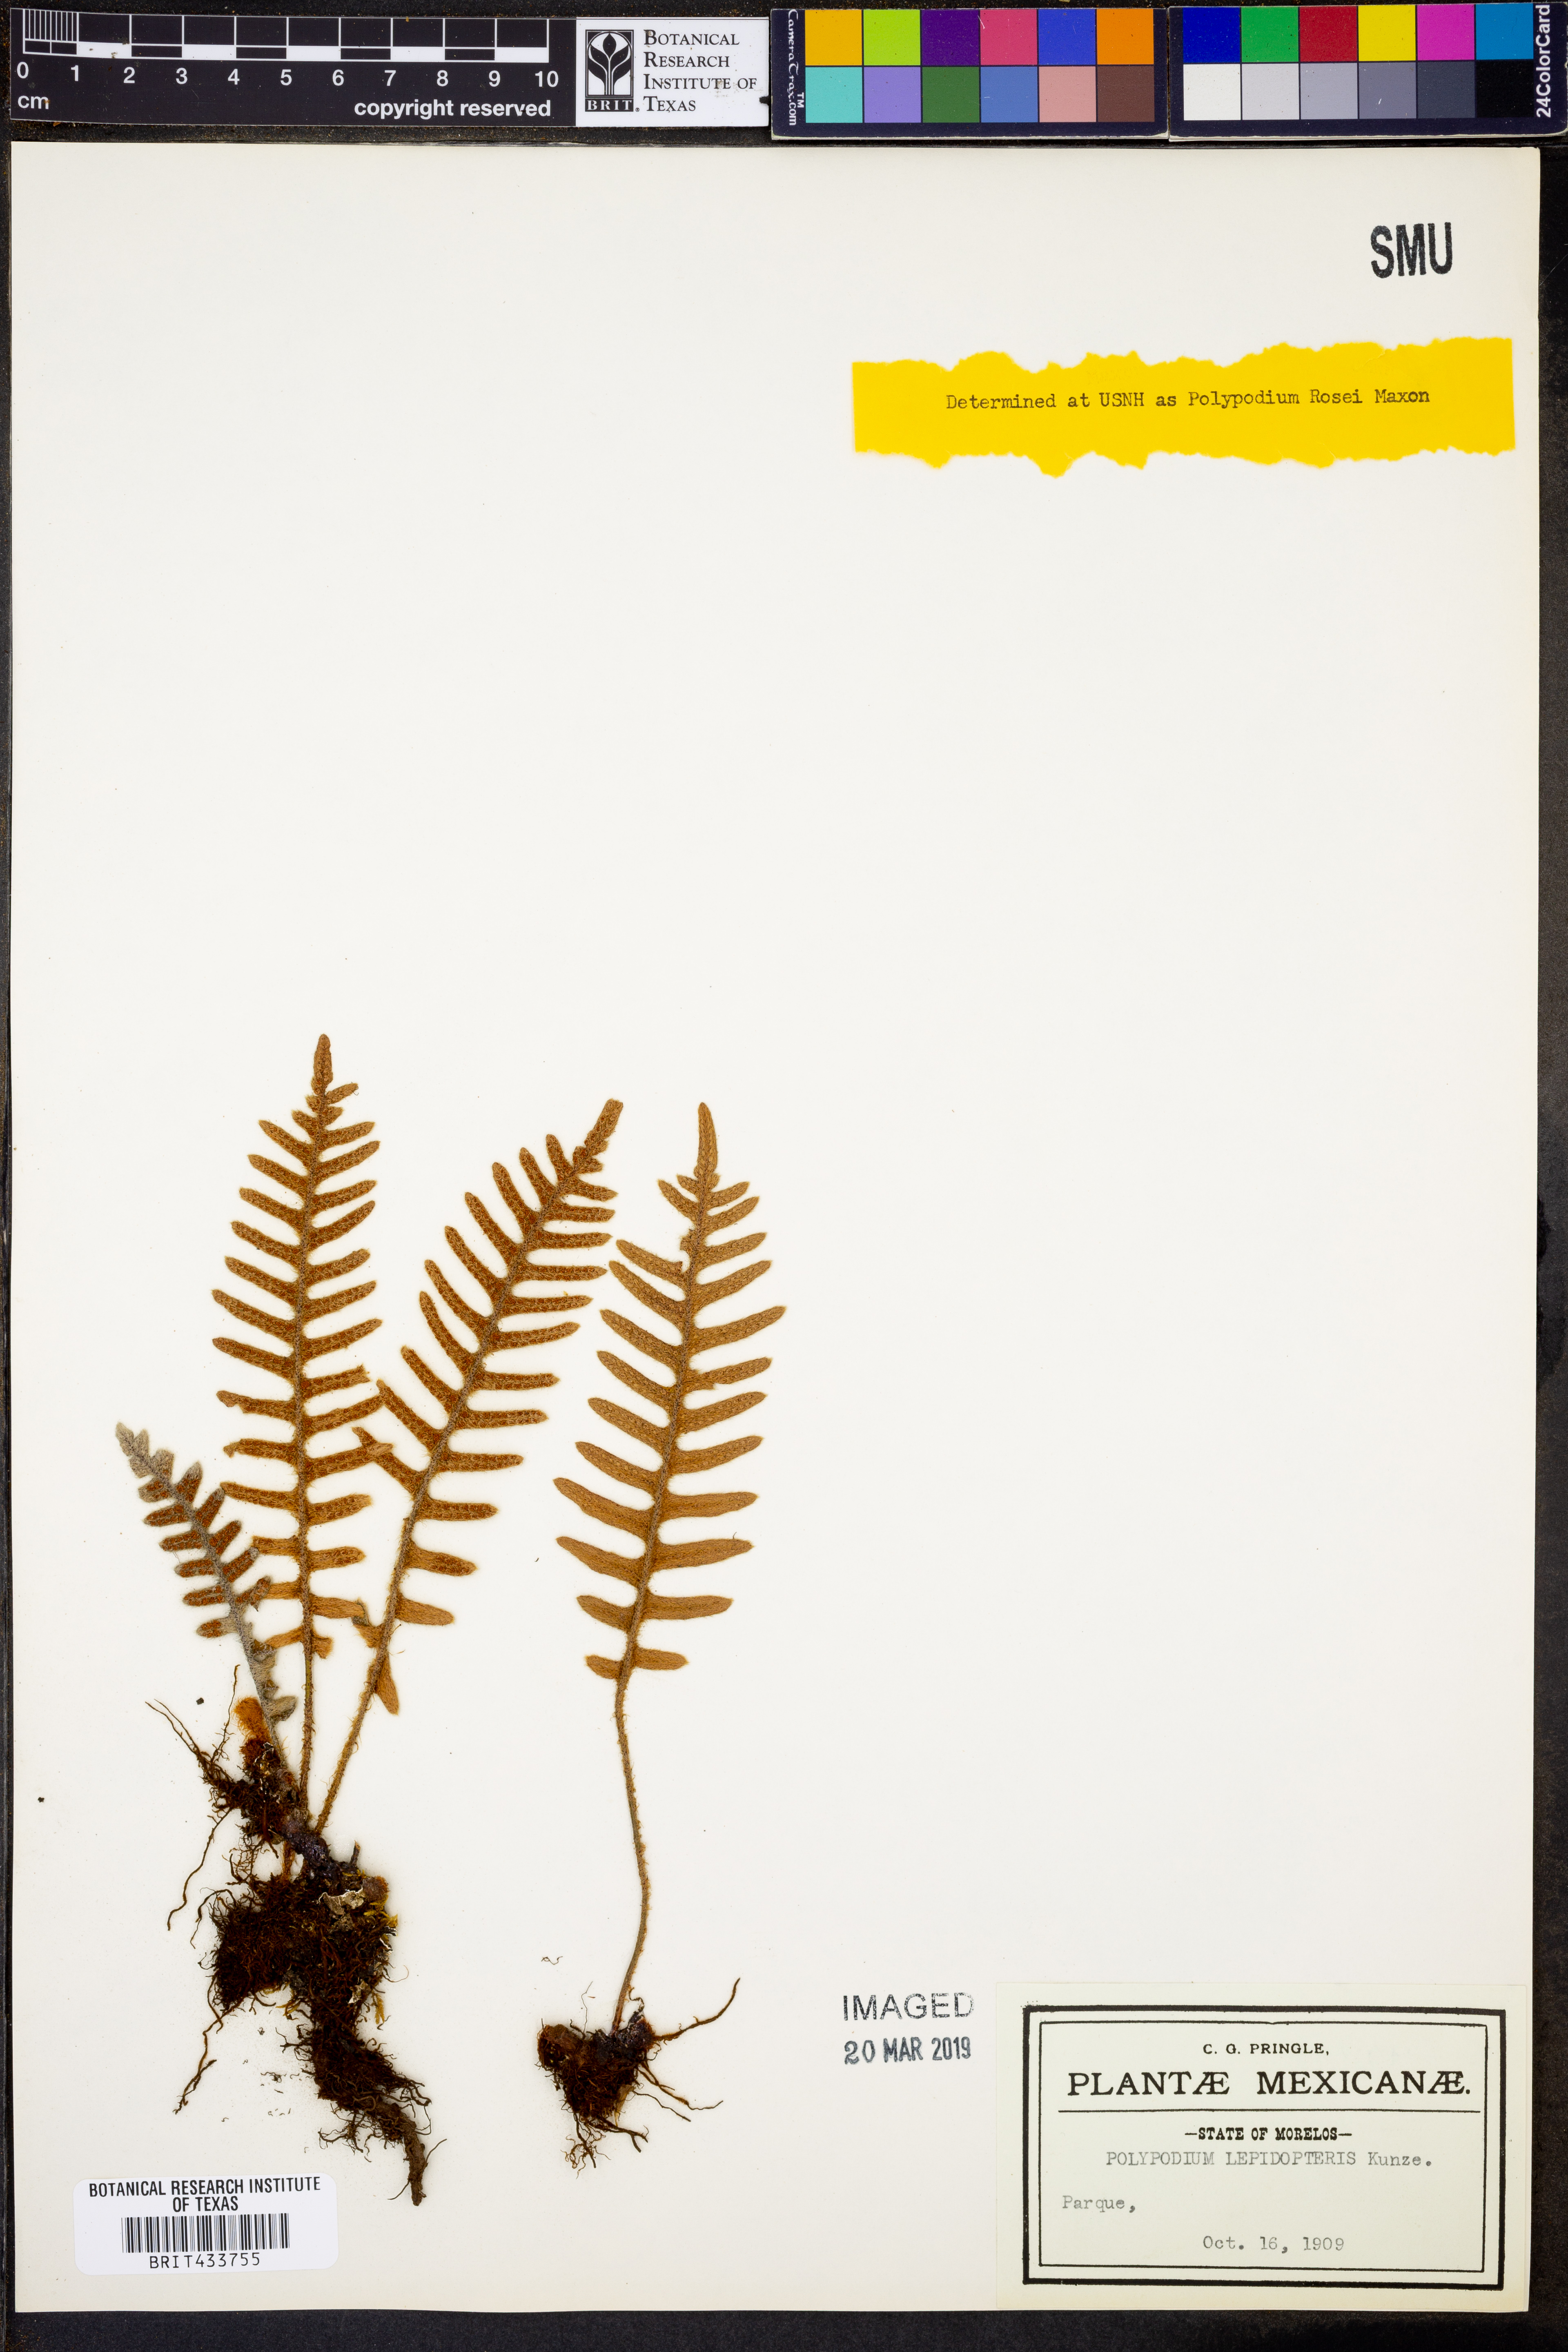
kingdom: Plantae
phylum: Tracheophyta
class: Polypodiopsida
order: Polypodiales
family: Polypodiaceae
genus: Pleopeltis
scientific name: Pleopeltis rosei
